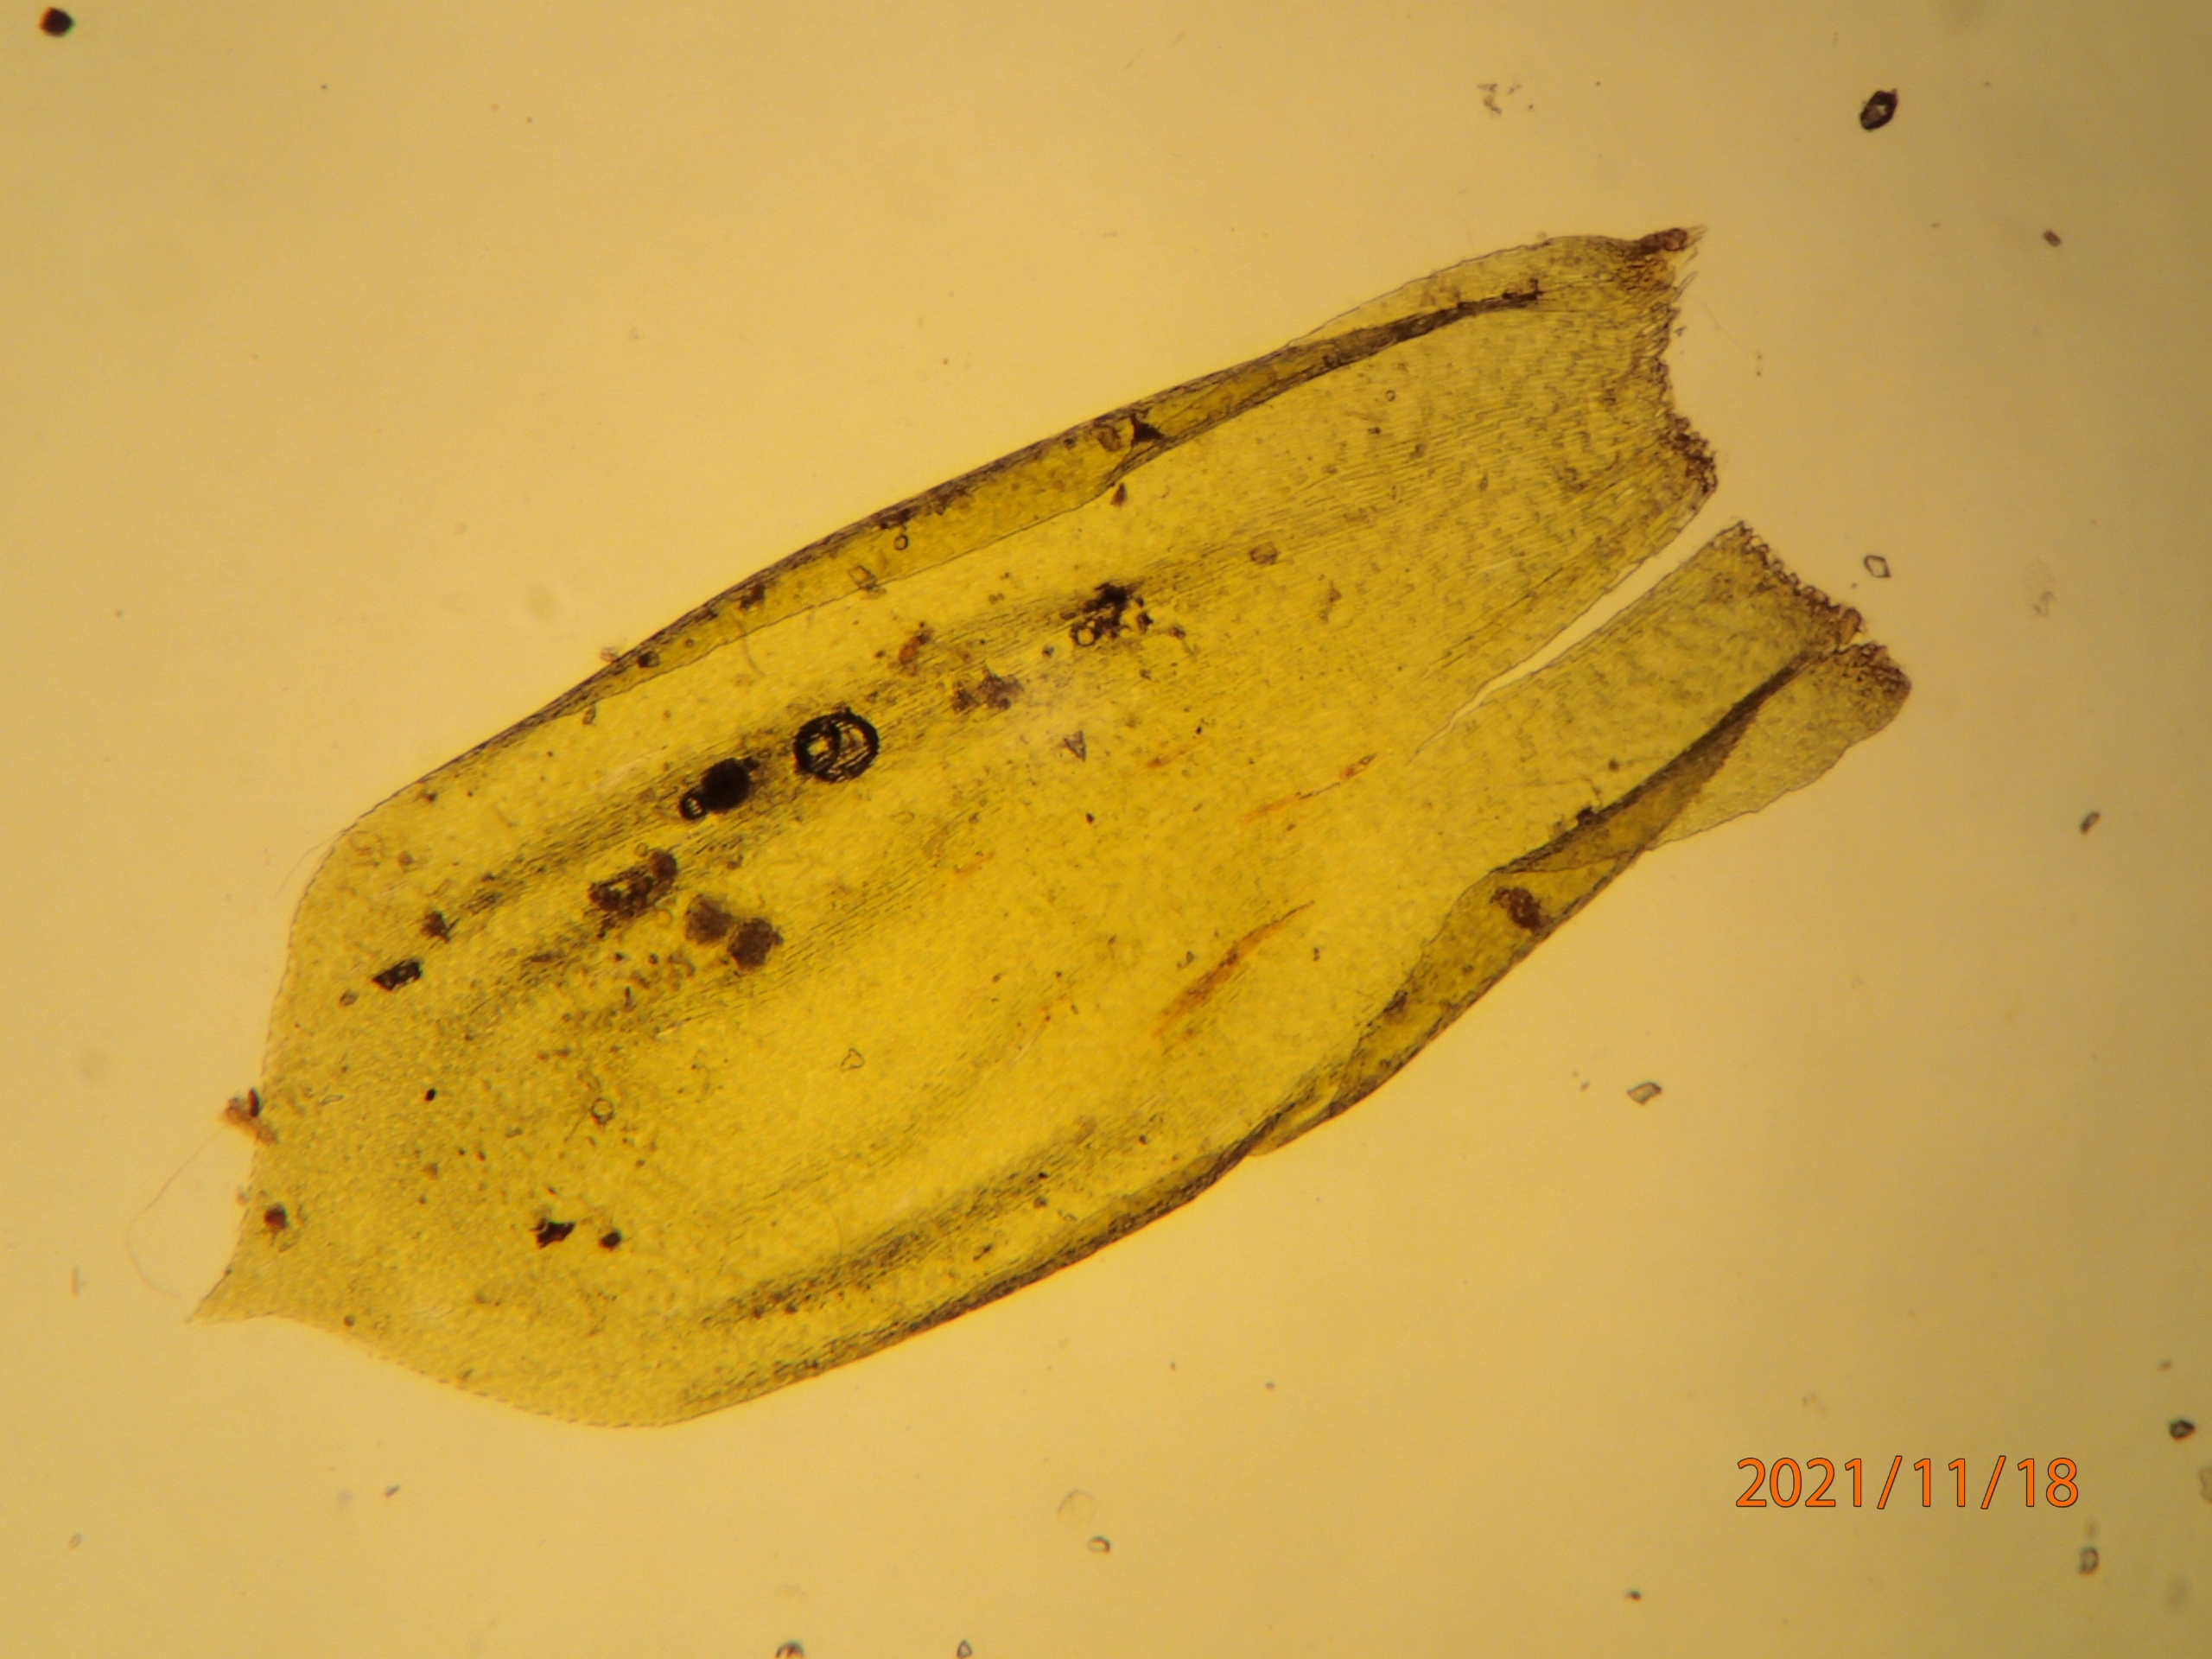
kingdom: Plantae
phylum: Bryophyta
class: Bryopsida
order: Hypnales
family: Neckeraceae
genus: Alleniella
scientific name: Alleniella complanata
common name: Almindelig fladmos
